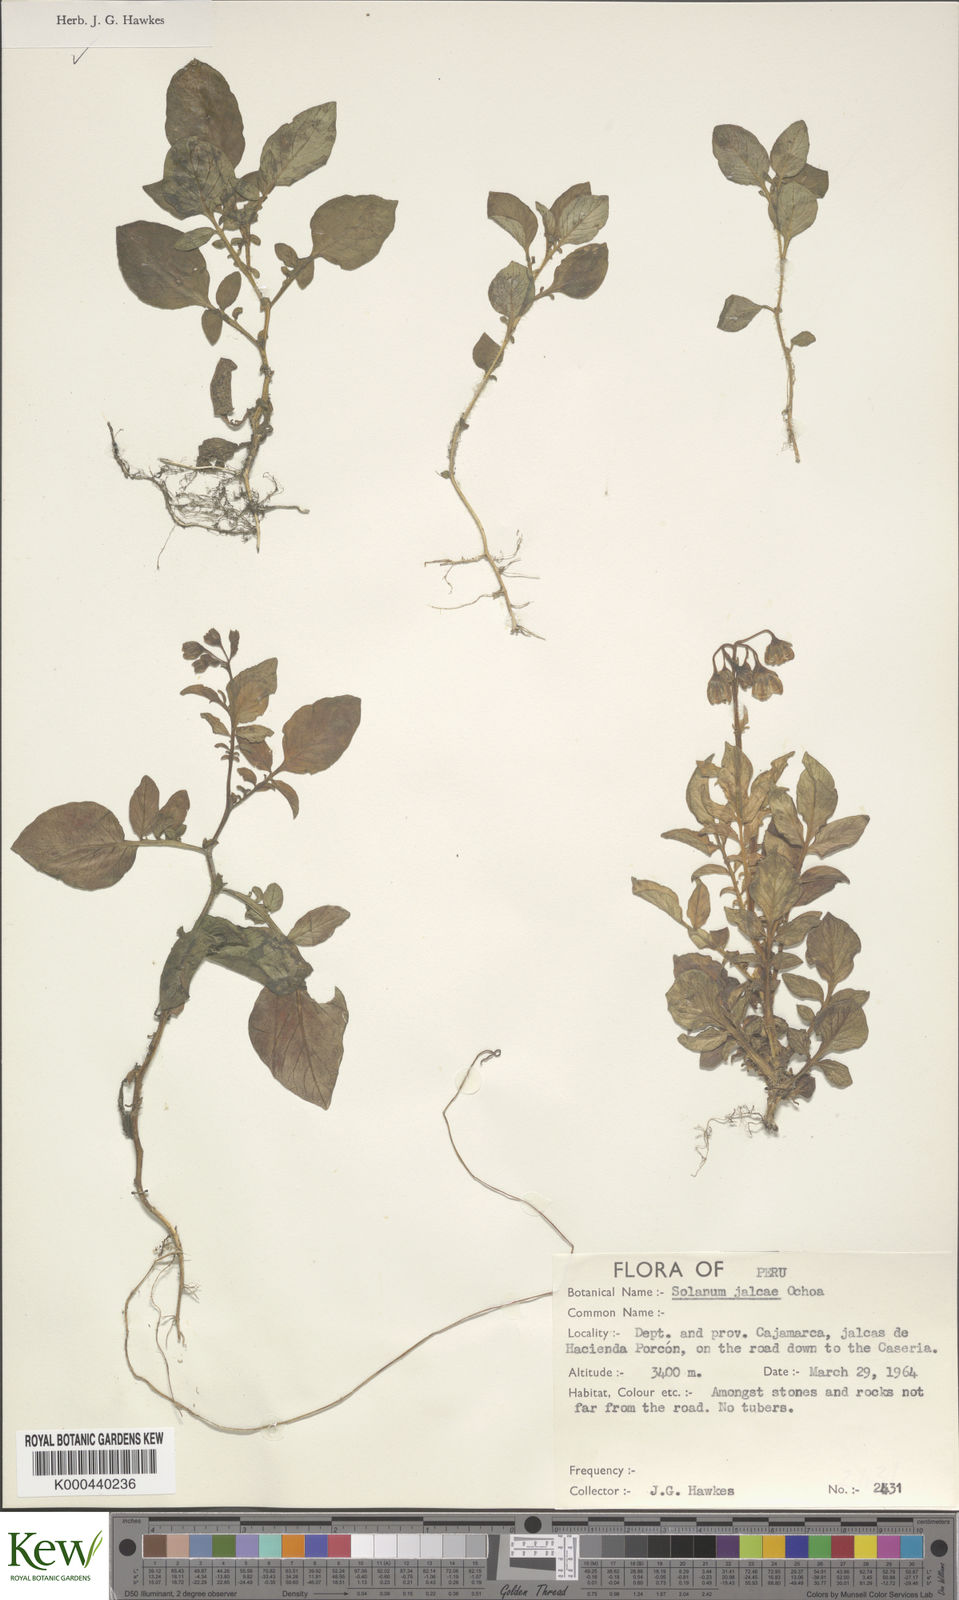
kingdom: Plantae
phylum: Tracheophyta
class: Magnoliopsida
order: Solanales
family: Solanaceae
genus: Solanum
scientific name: Solanum chomatophilum
